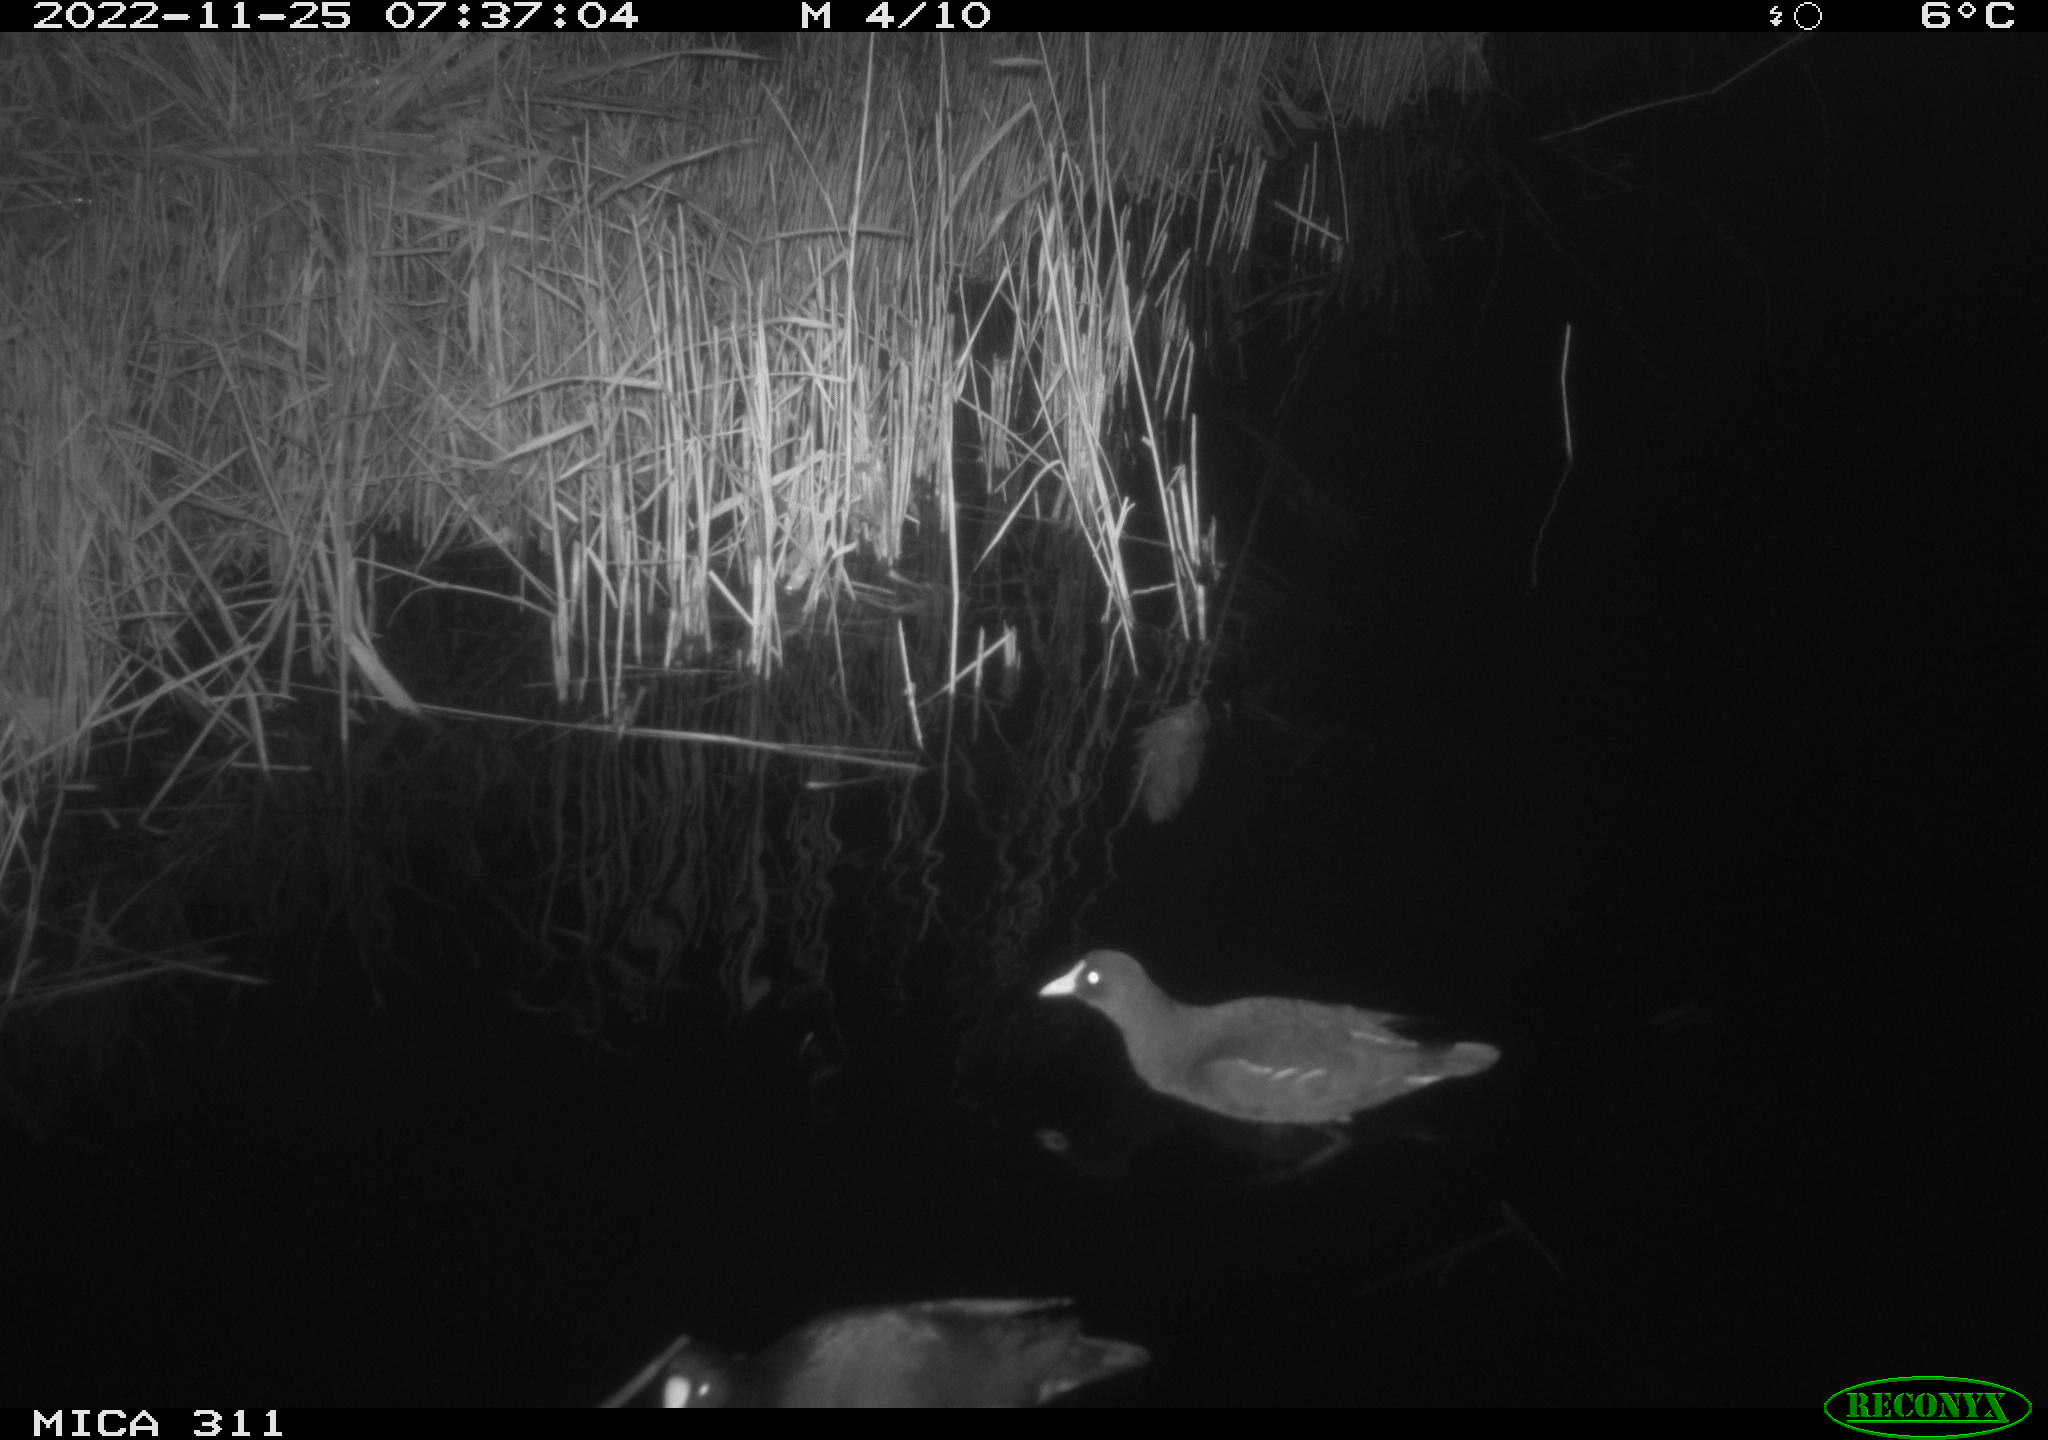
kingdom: Animalia
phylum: Chordata
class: Aves
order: Gruiformes
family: Rallidae
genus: Gallinula
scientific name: Gallinula chloropus
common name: Common moorhen
